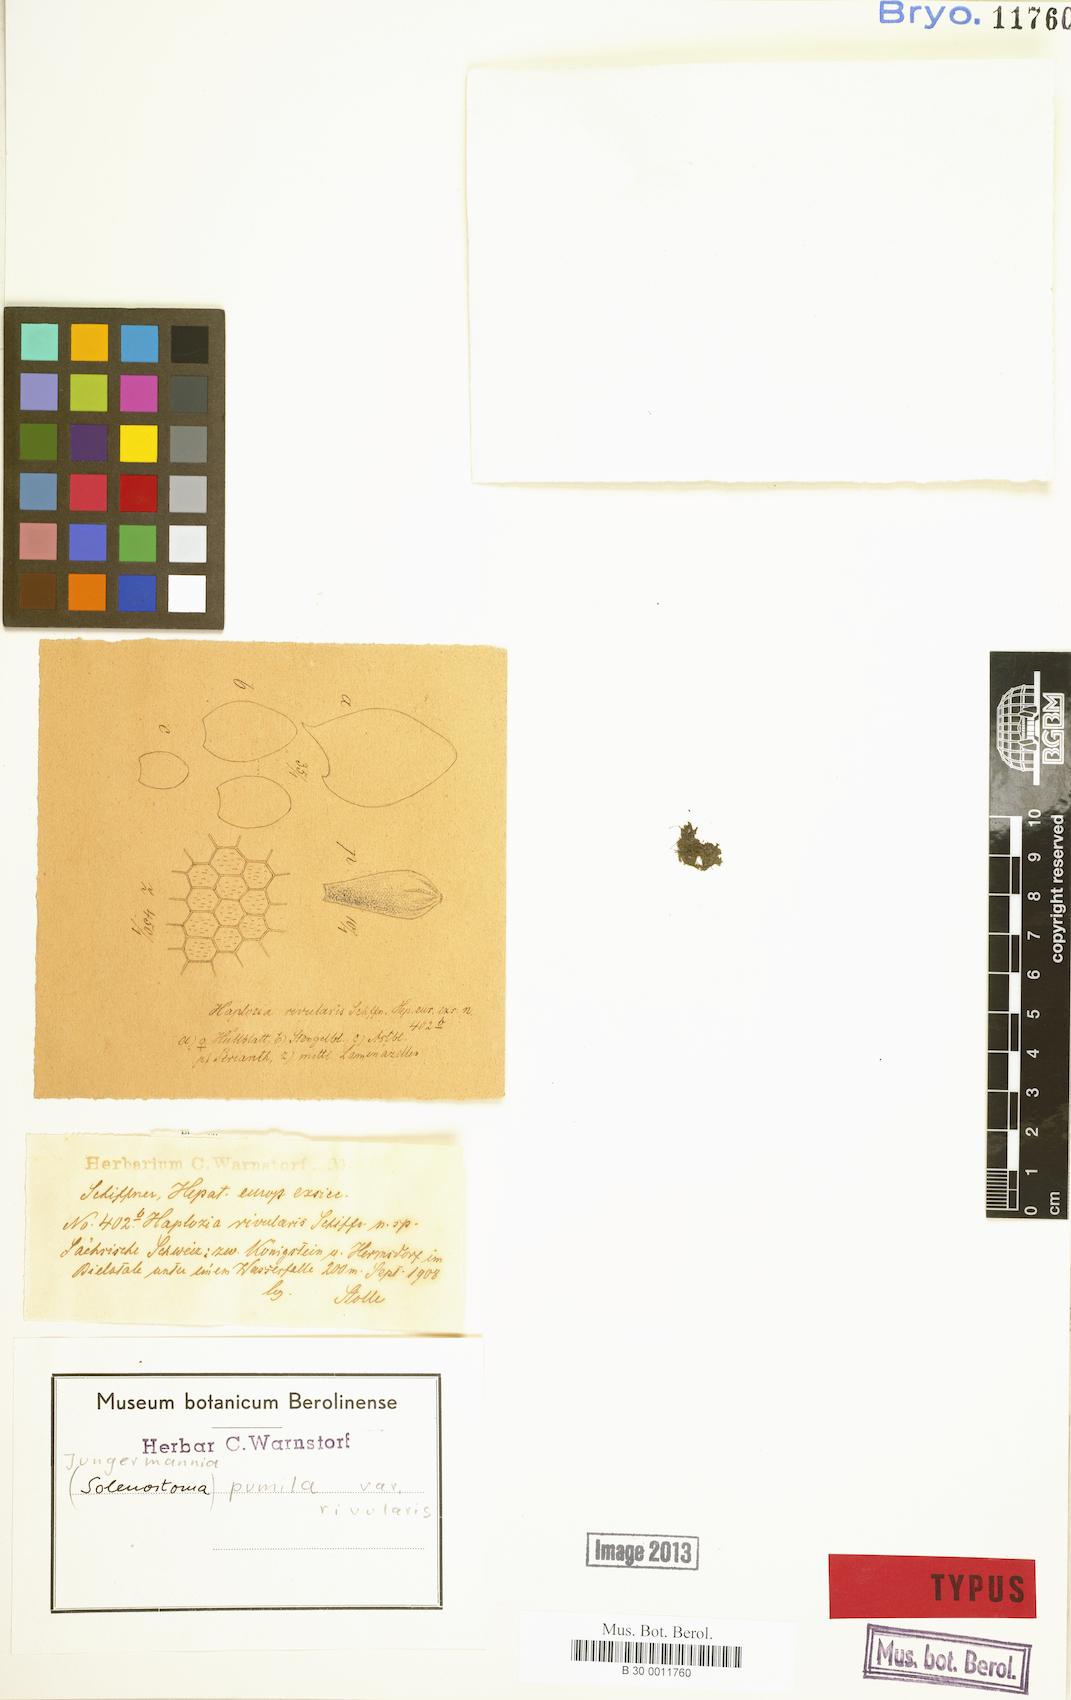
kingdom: Plantae
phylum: Marchantiophyta
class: Jungermanniopsida
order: Jungermanniales
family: Jungermanniaceae
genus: Jungermannia
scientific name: Jungermannia pumila
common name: Dwarf flapwort
